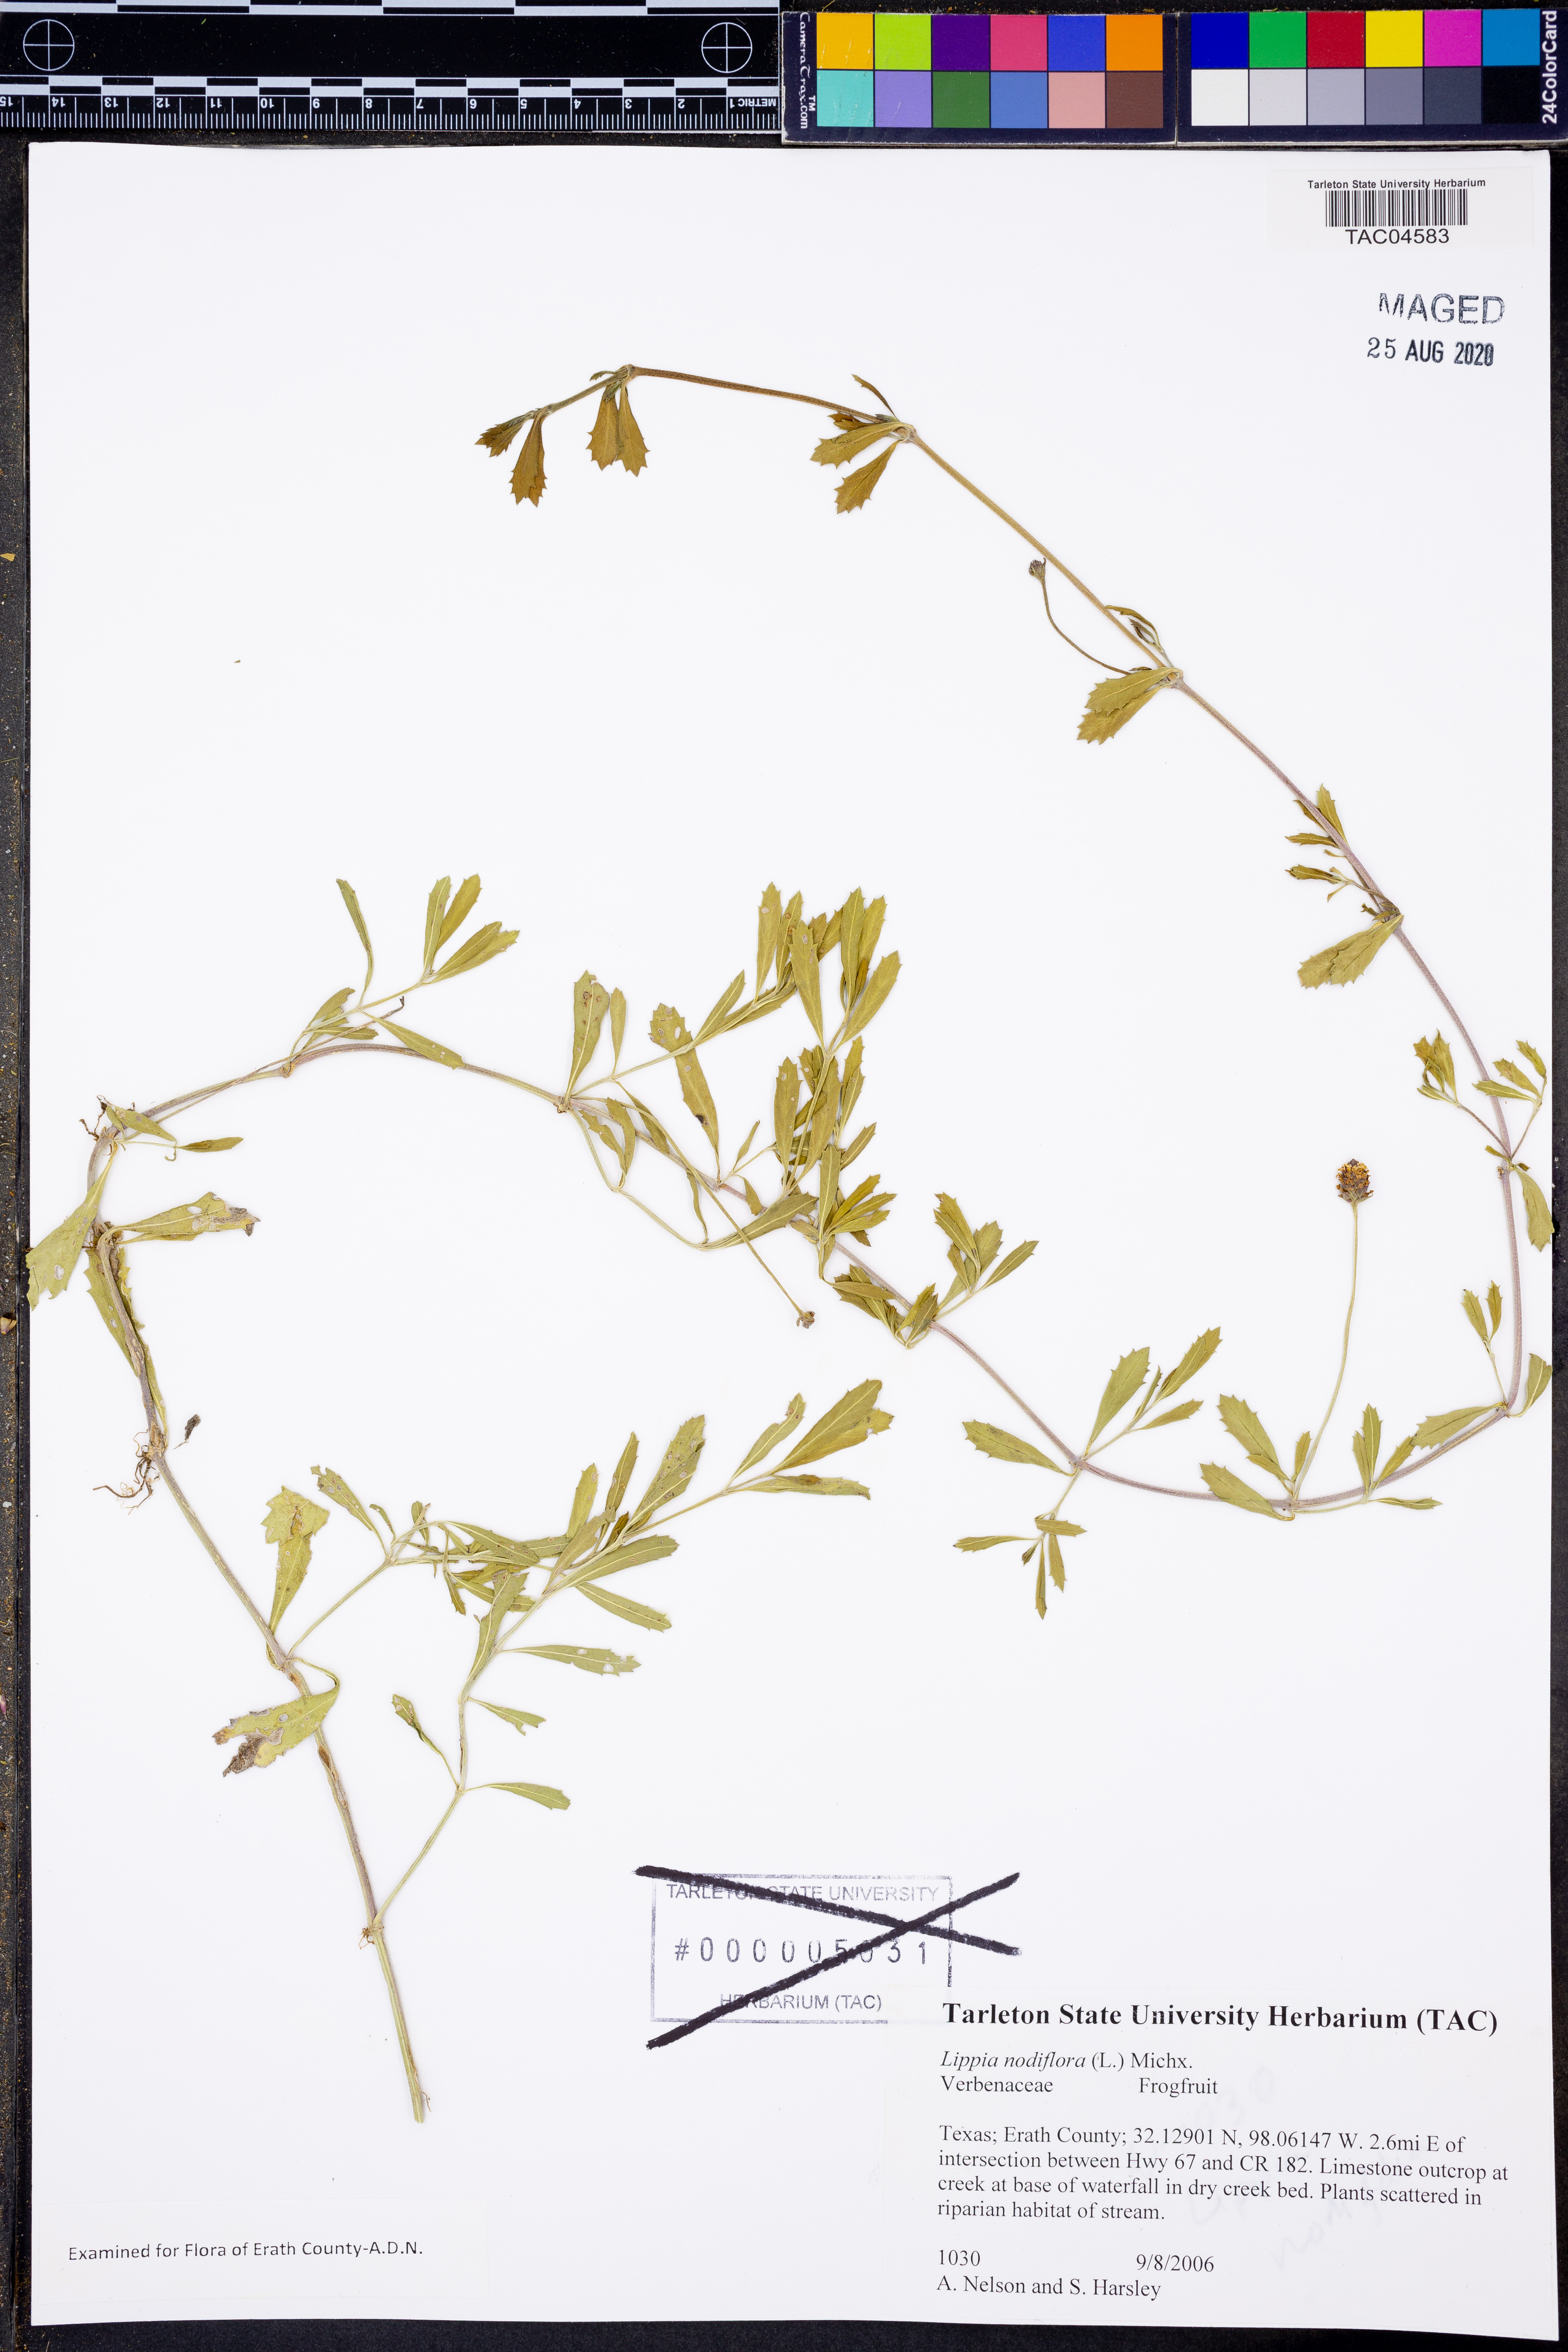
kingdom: Plantae
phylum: Tracheophyta
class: Magnoliopsida
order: Lamiales
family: Verbenaceae
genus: Phyla
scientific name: Phyla nodiflora
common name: Frogfruit
